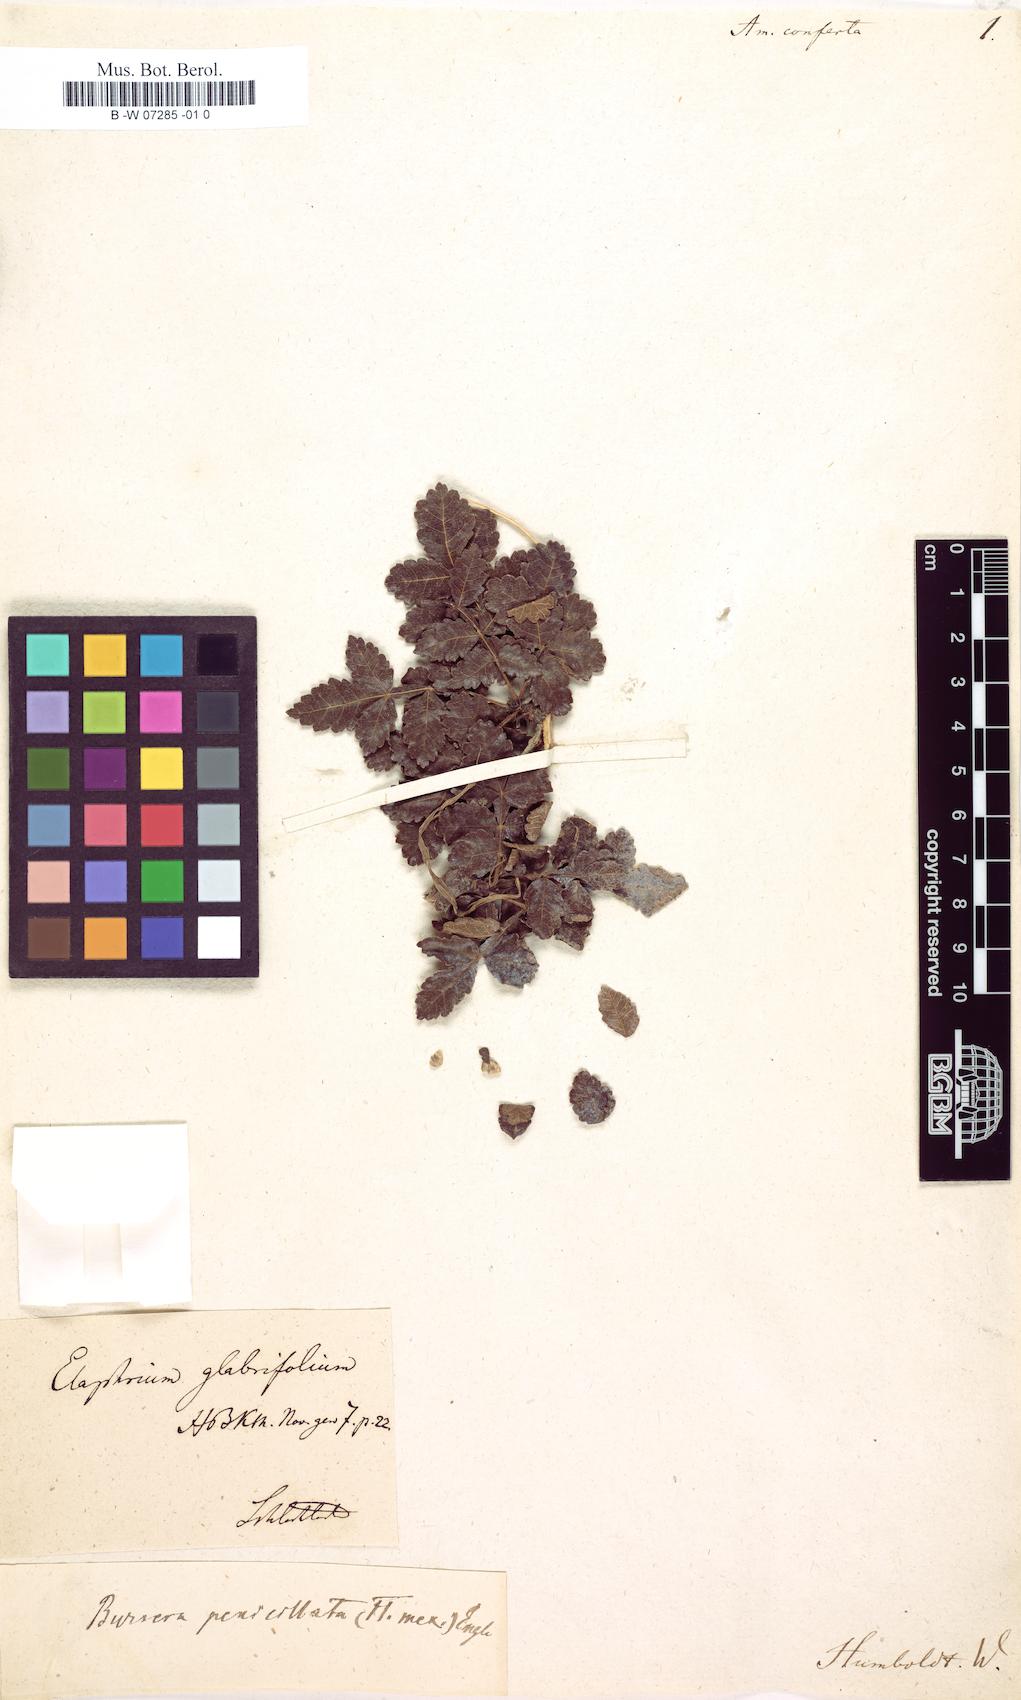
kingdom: Plantae
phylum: Tracheophyta
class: Magnoliopsida
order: Sapindales
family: Rutaceae
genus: Amyris
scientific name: Amyris
